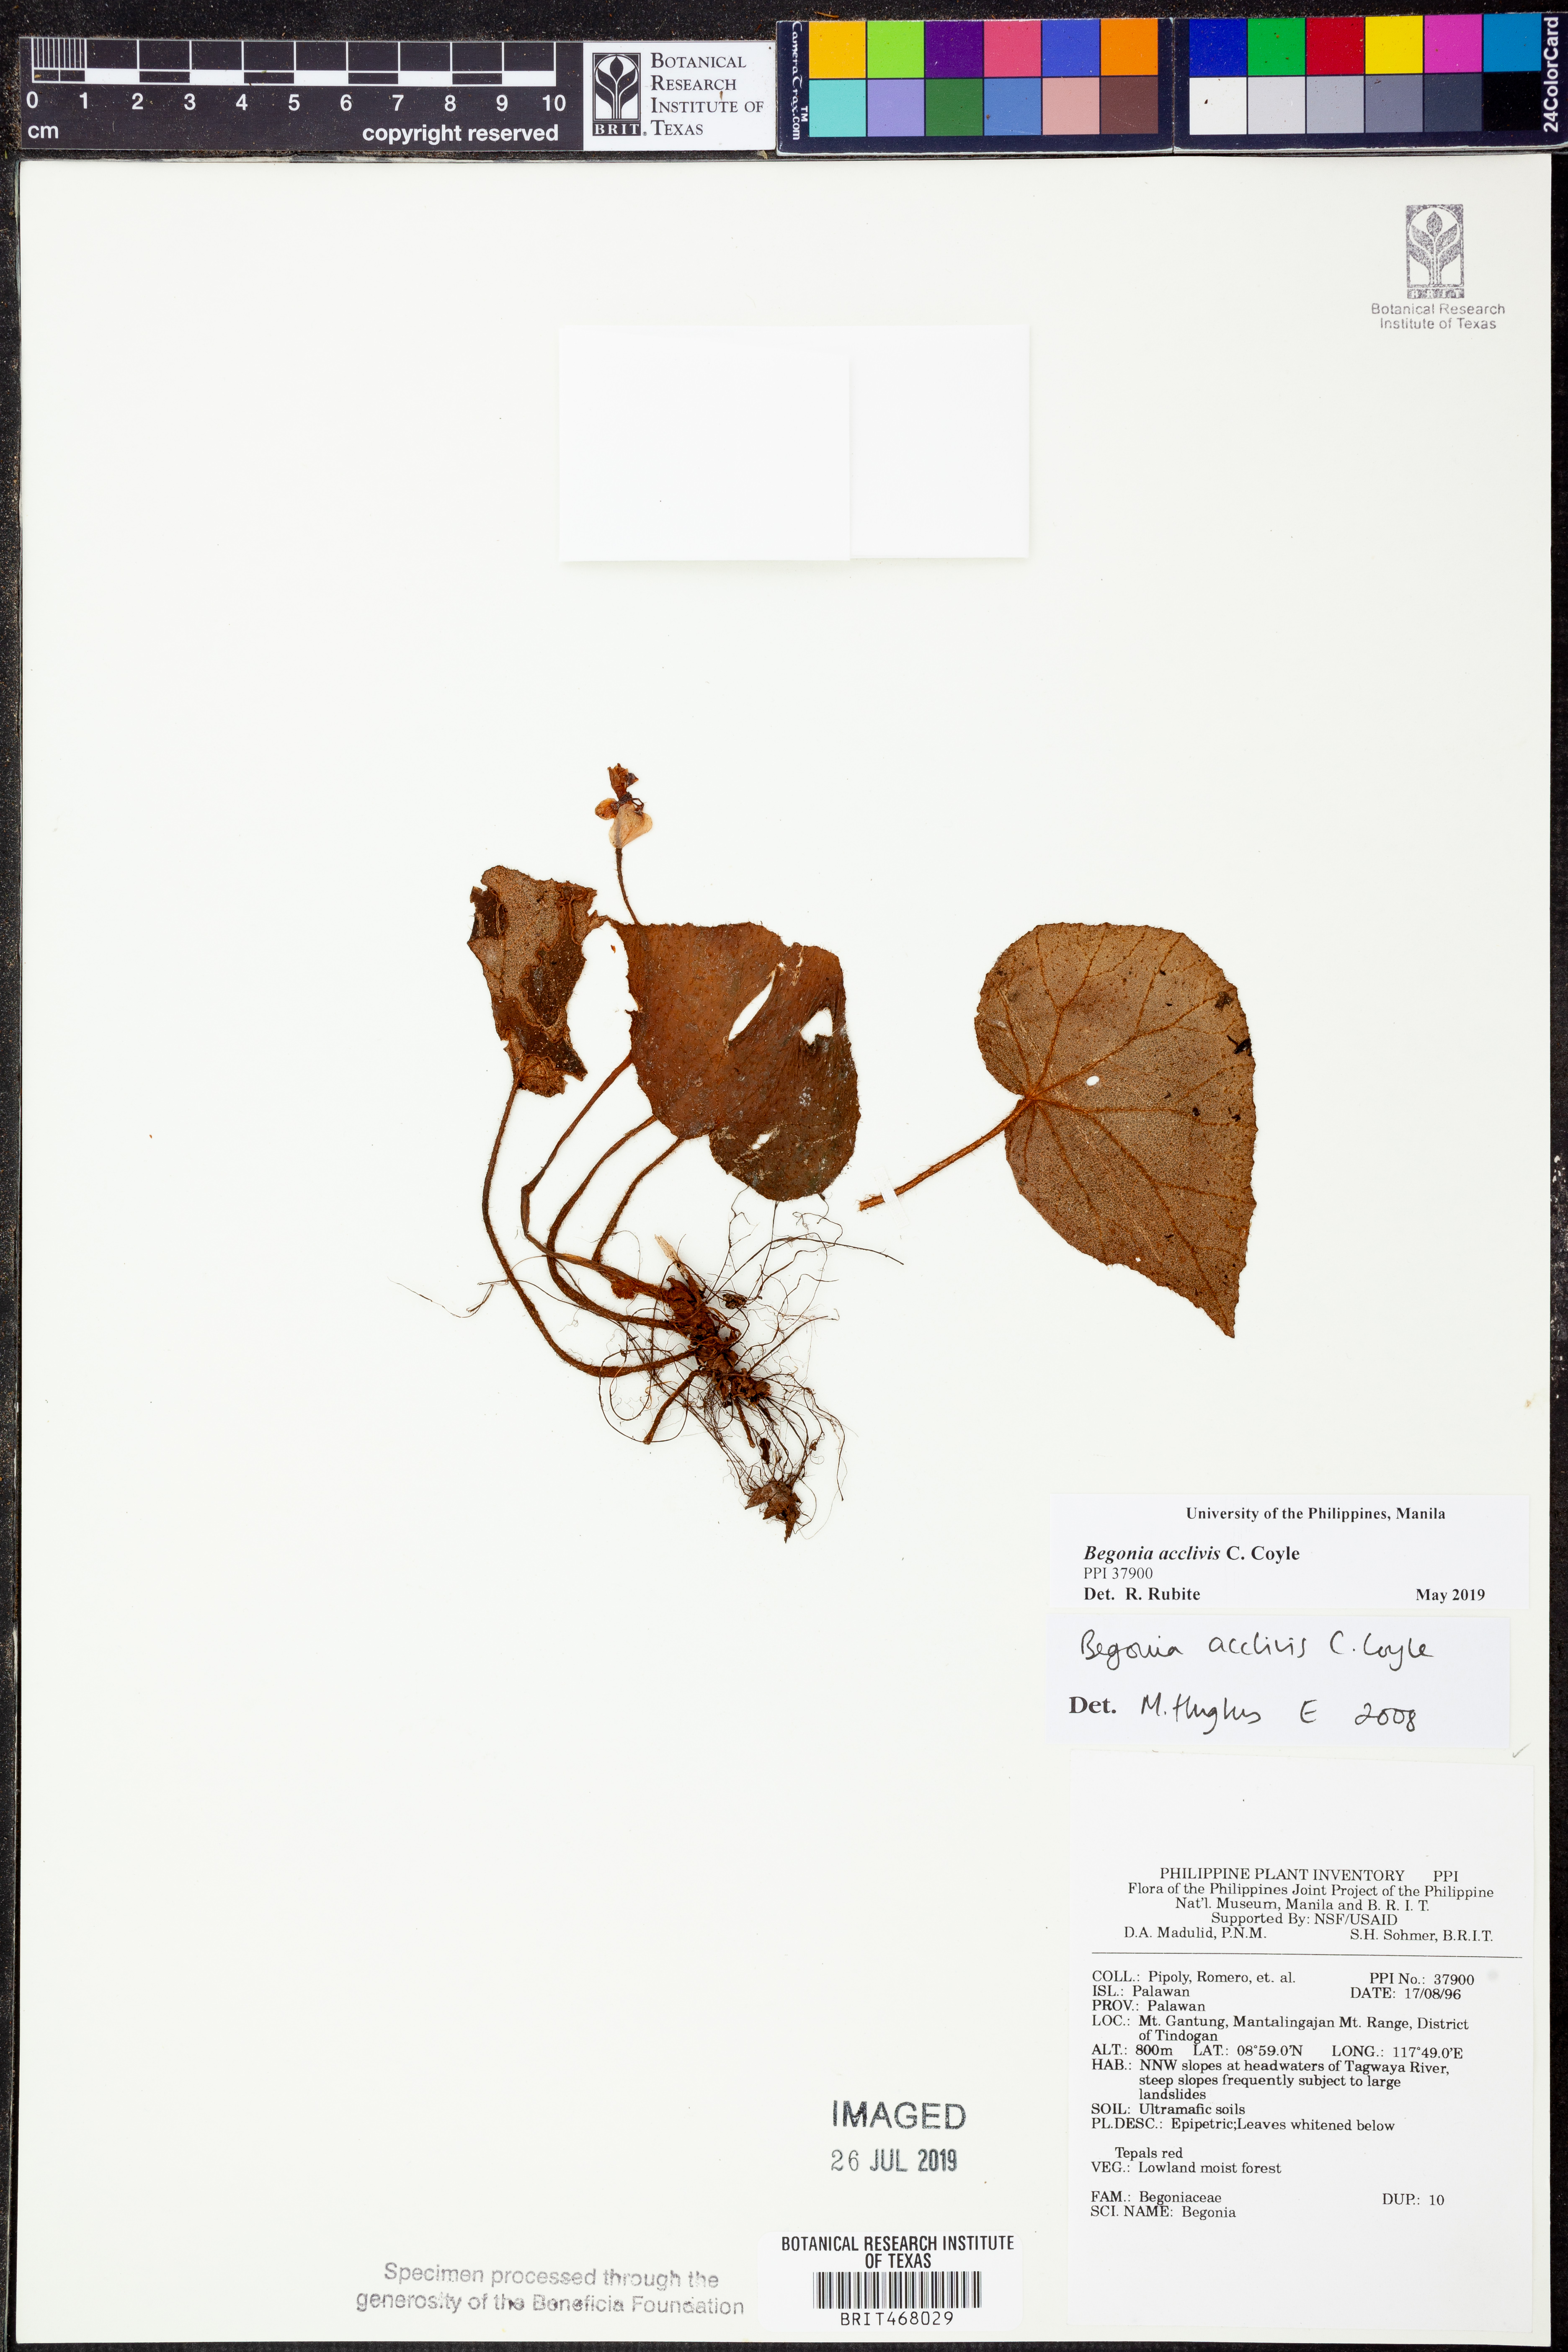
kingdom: Plantae
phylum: Tracheophyta
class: Magnoliopsida
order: Cucurbitales
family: Begoniaceae
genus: Begonia
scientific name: Begonia acclivis
